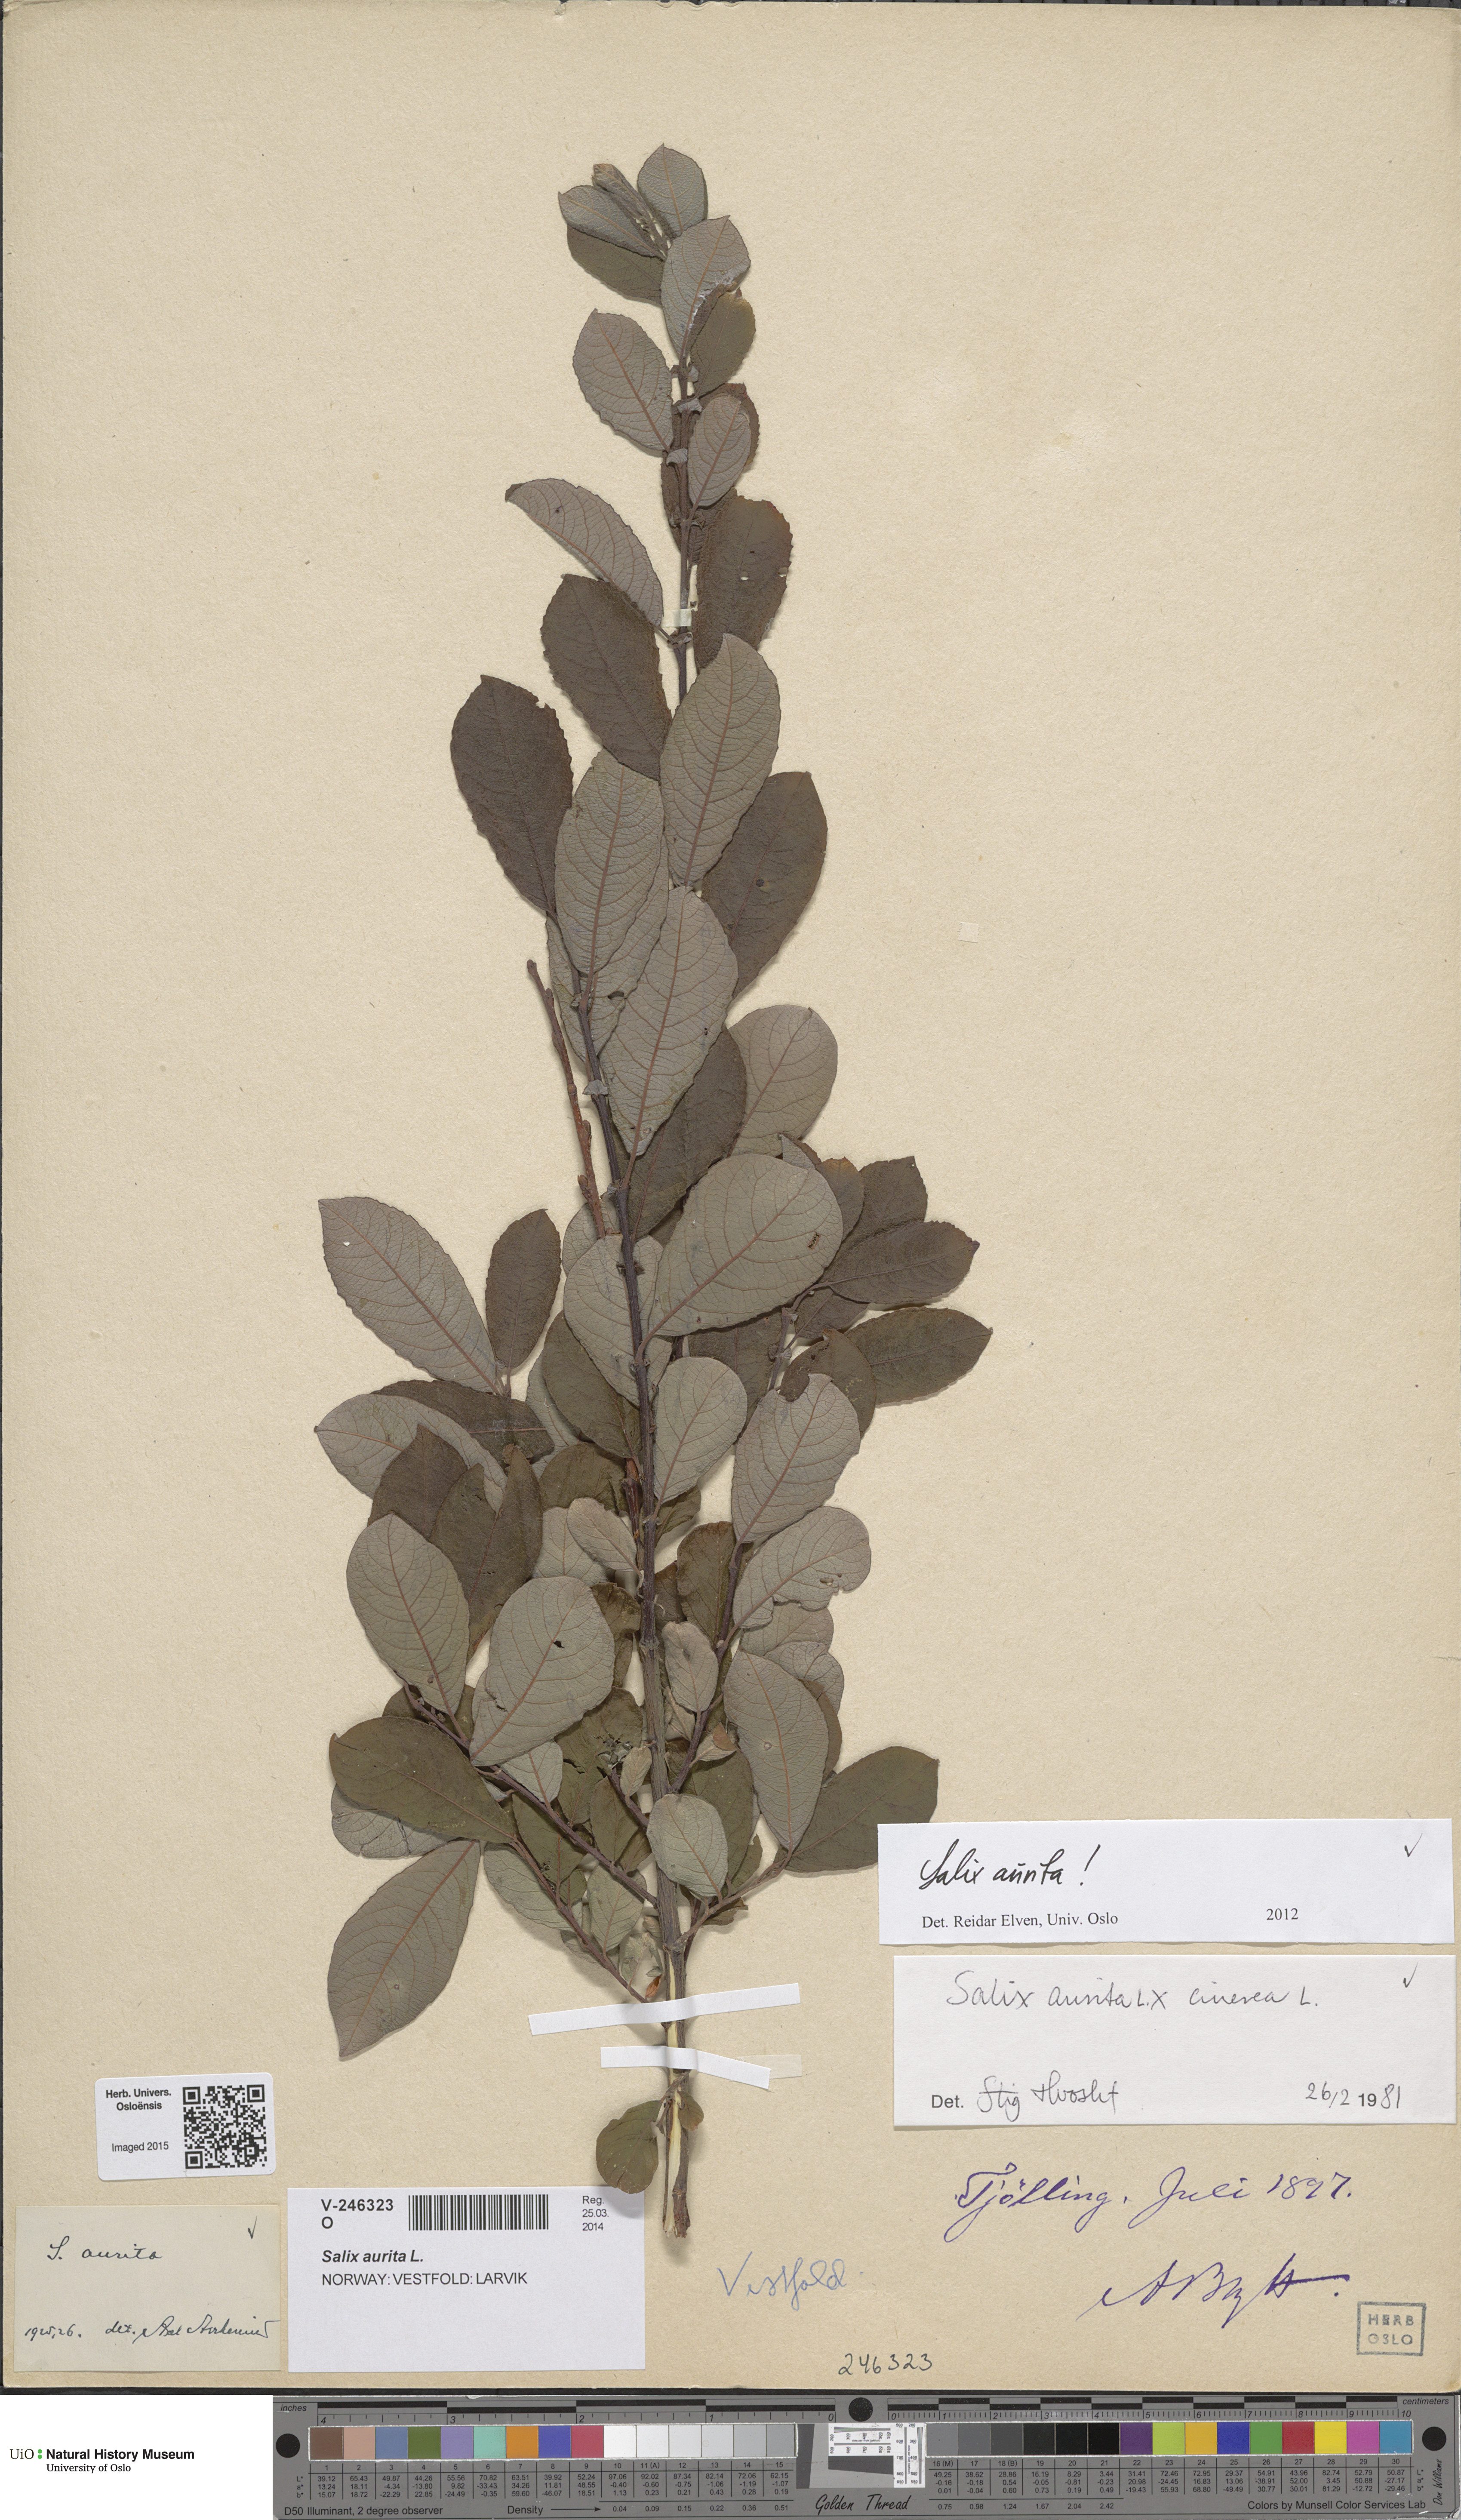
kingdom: Plantae
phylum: Tracheophyta
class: Magnoliopsida
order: Malpighiales
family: Salicaceae
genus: Salix
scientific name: Salix aurita
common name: Eared willow
